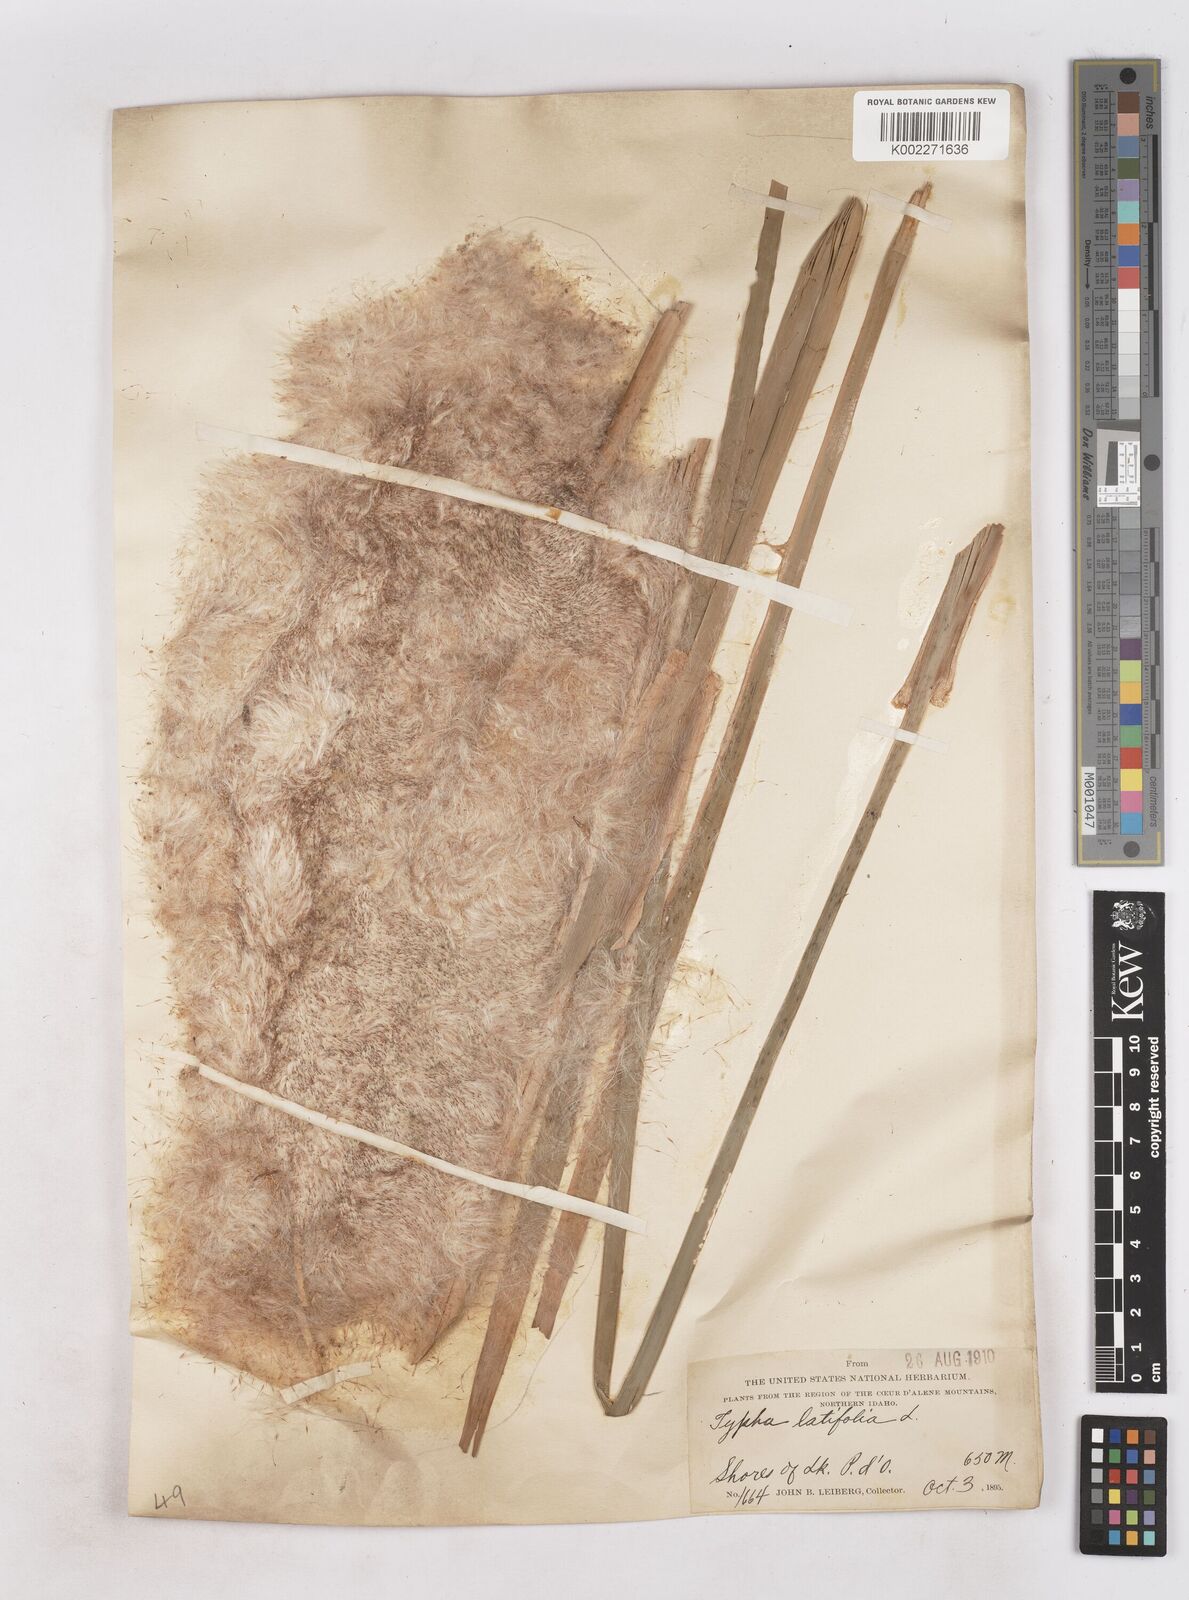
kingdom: Plantae
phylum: Tracheophyta
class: Liliopsida
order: Poales
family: Typhaceae
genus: Typha
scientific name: Typha latifolia
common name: Broadleaf cattail
